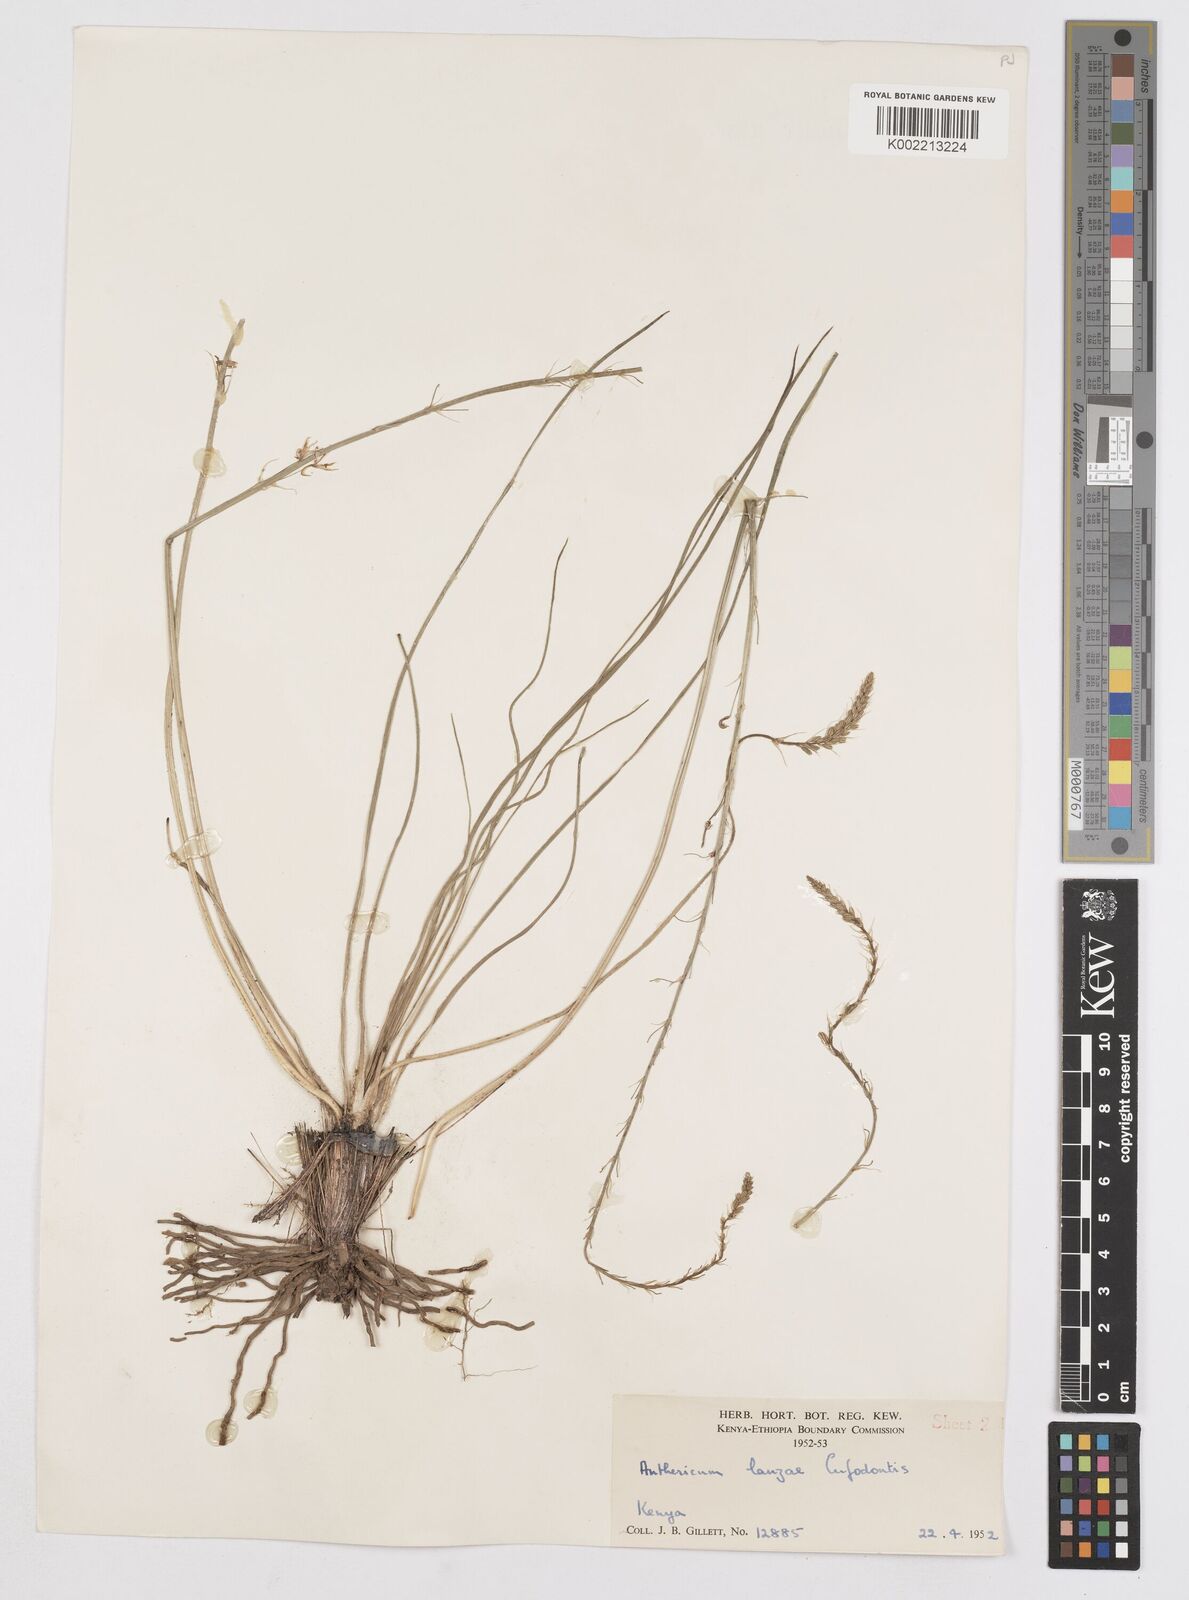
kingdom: Plantae
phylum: Tracheophyta
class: Liliopsida
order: Asparagales
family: Asphodelaceae
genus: Trachyandra
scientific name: Trachyandra saltii
